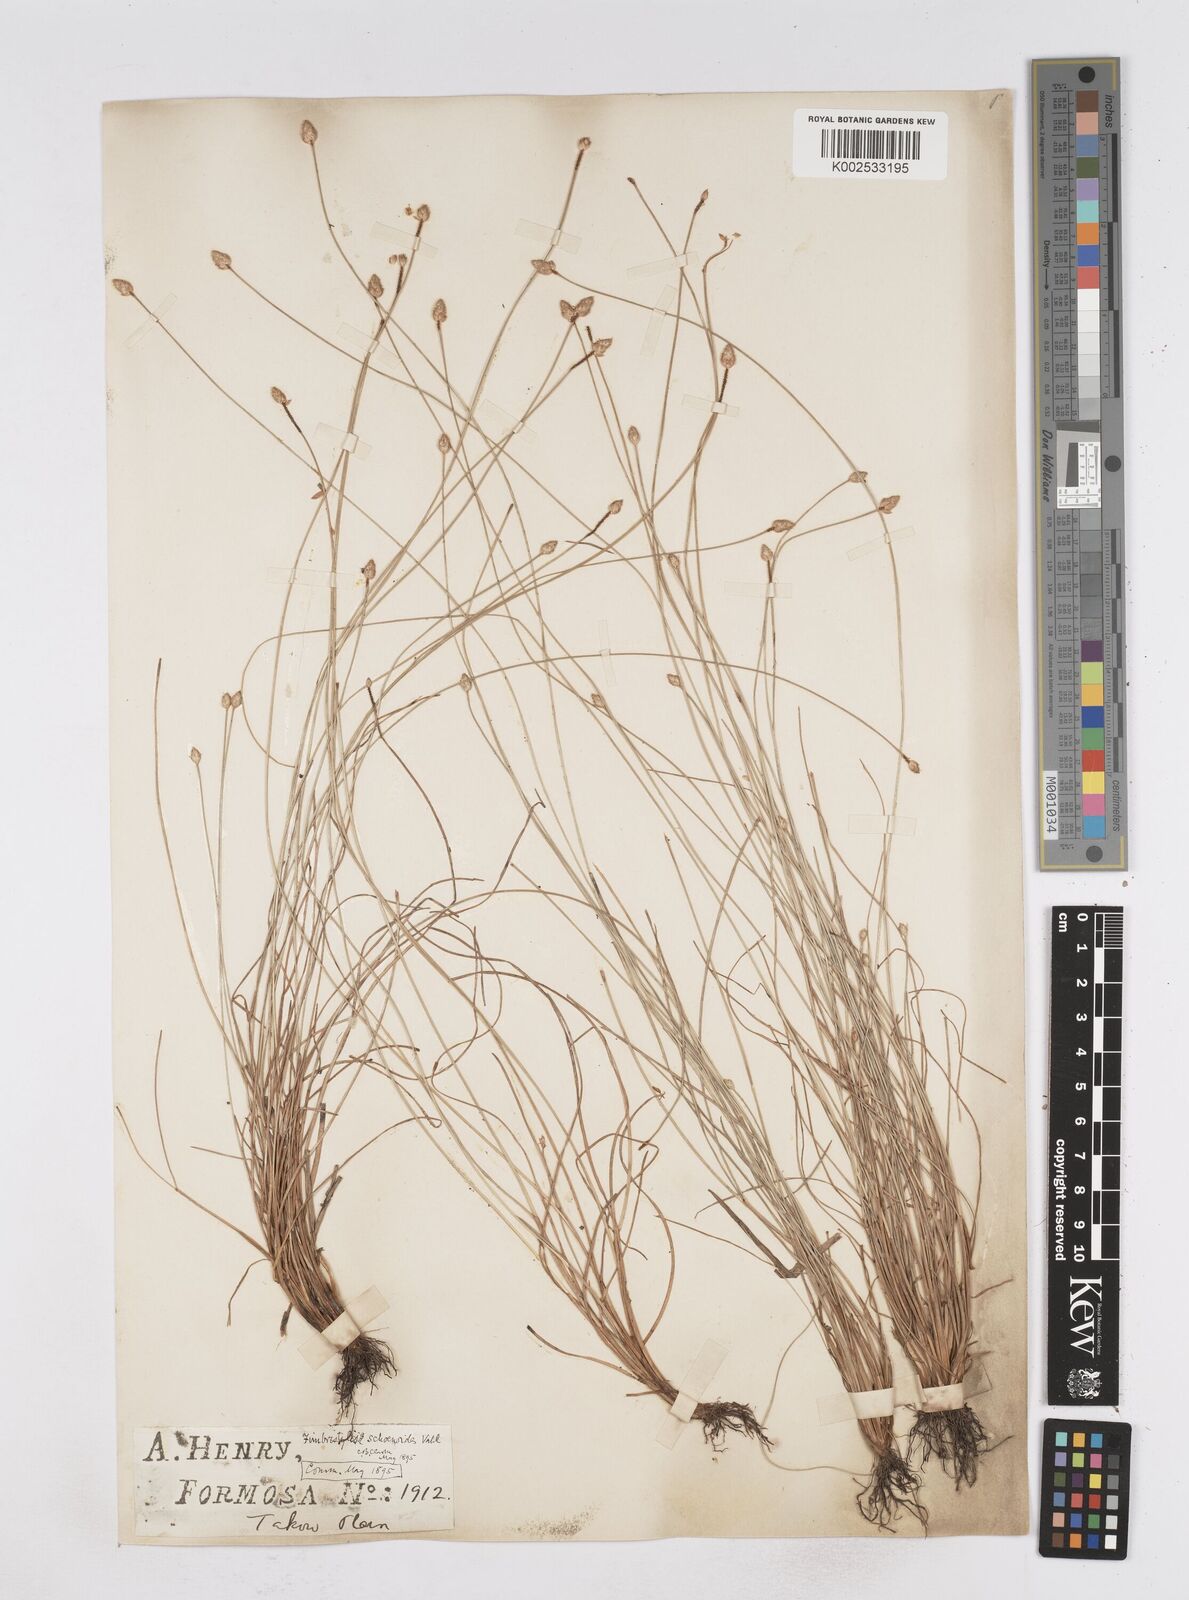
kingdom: Plantae
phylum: Tracheophyta
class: Liliopsida
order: Poales
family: Cyperaceae
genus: Fimbristylis
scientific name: Fimbristylis schoenoides
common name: Ditch fimbry
